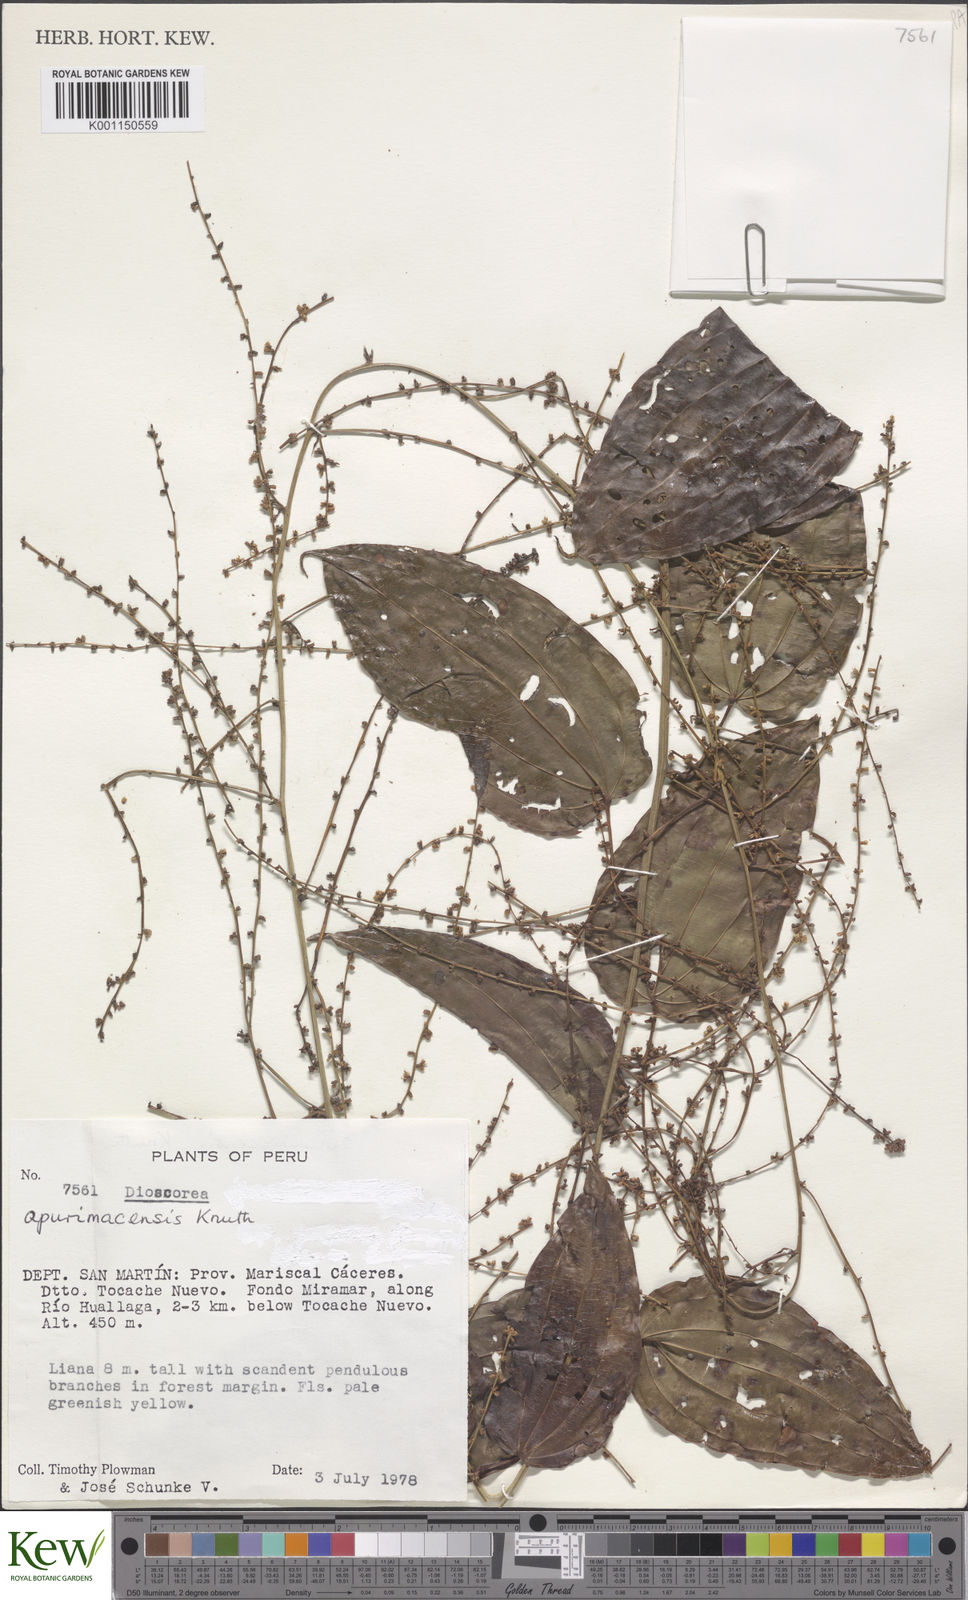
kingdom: Plantae
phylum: Tracheophyta
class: Liliopsida
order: Dioscoreales
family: Dioscoreaceae
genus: Dioscorea
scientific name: Dioscorea acanthogene
